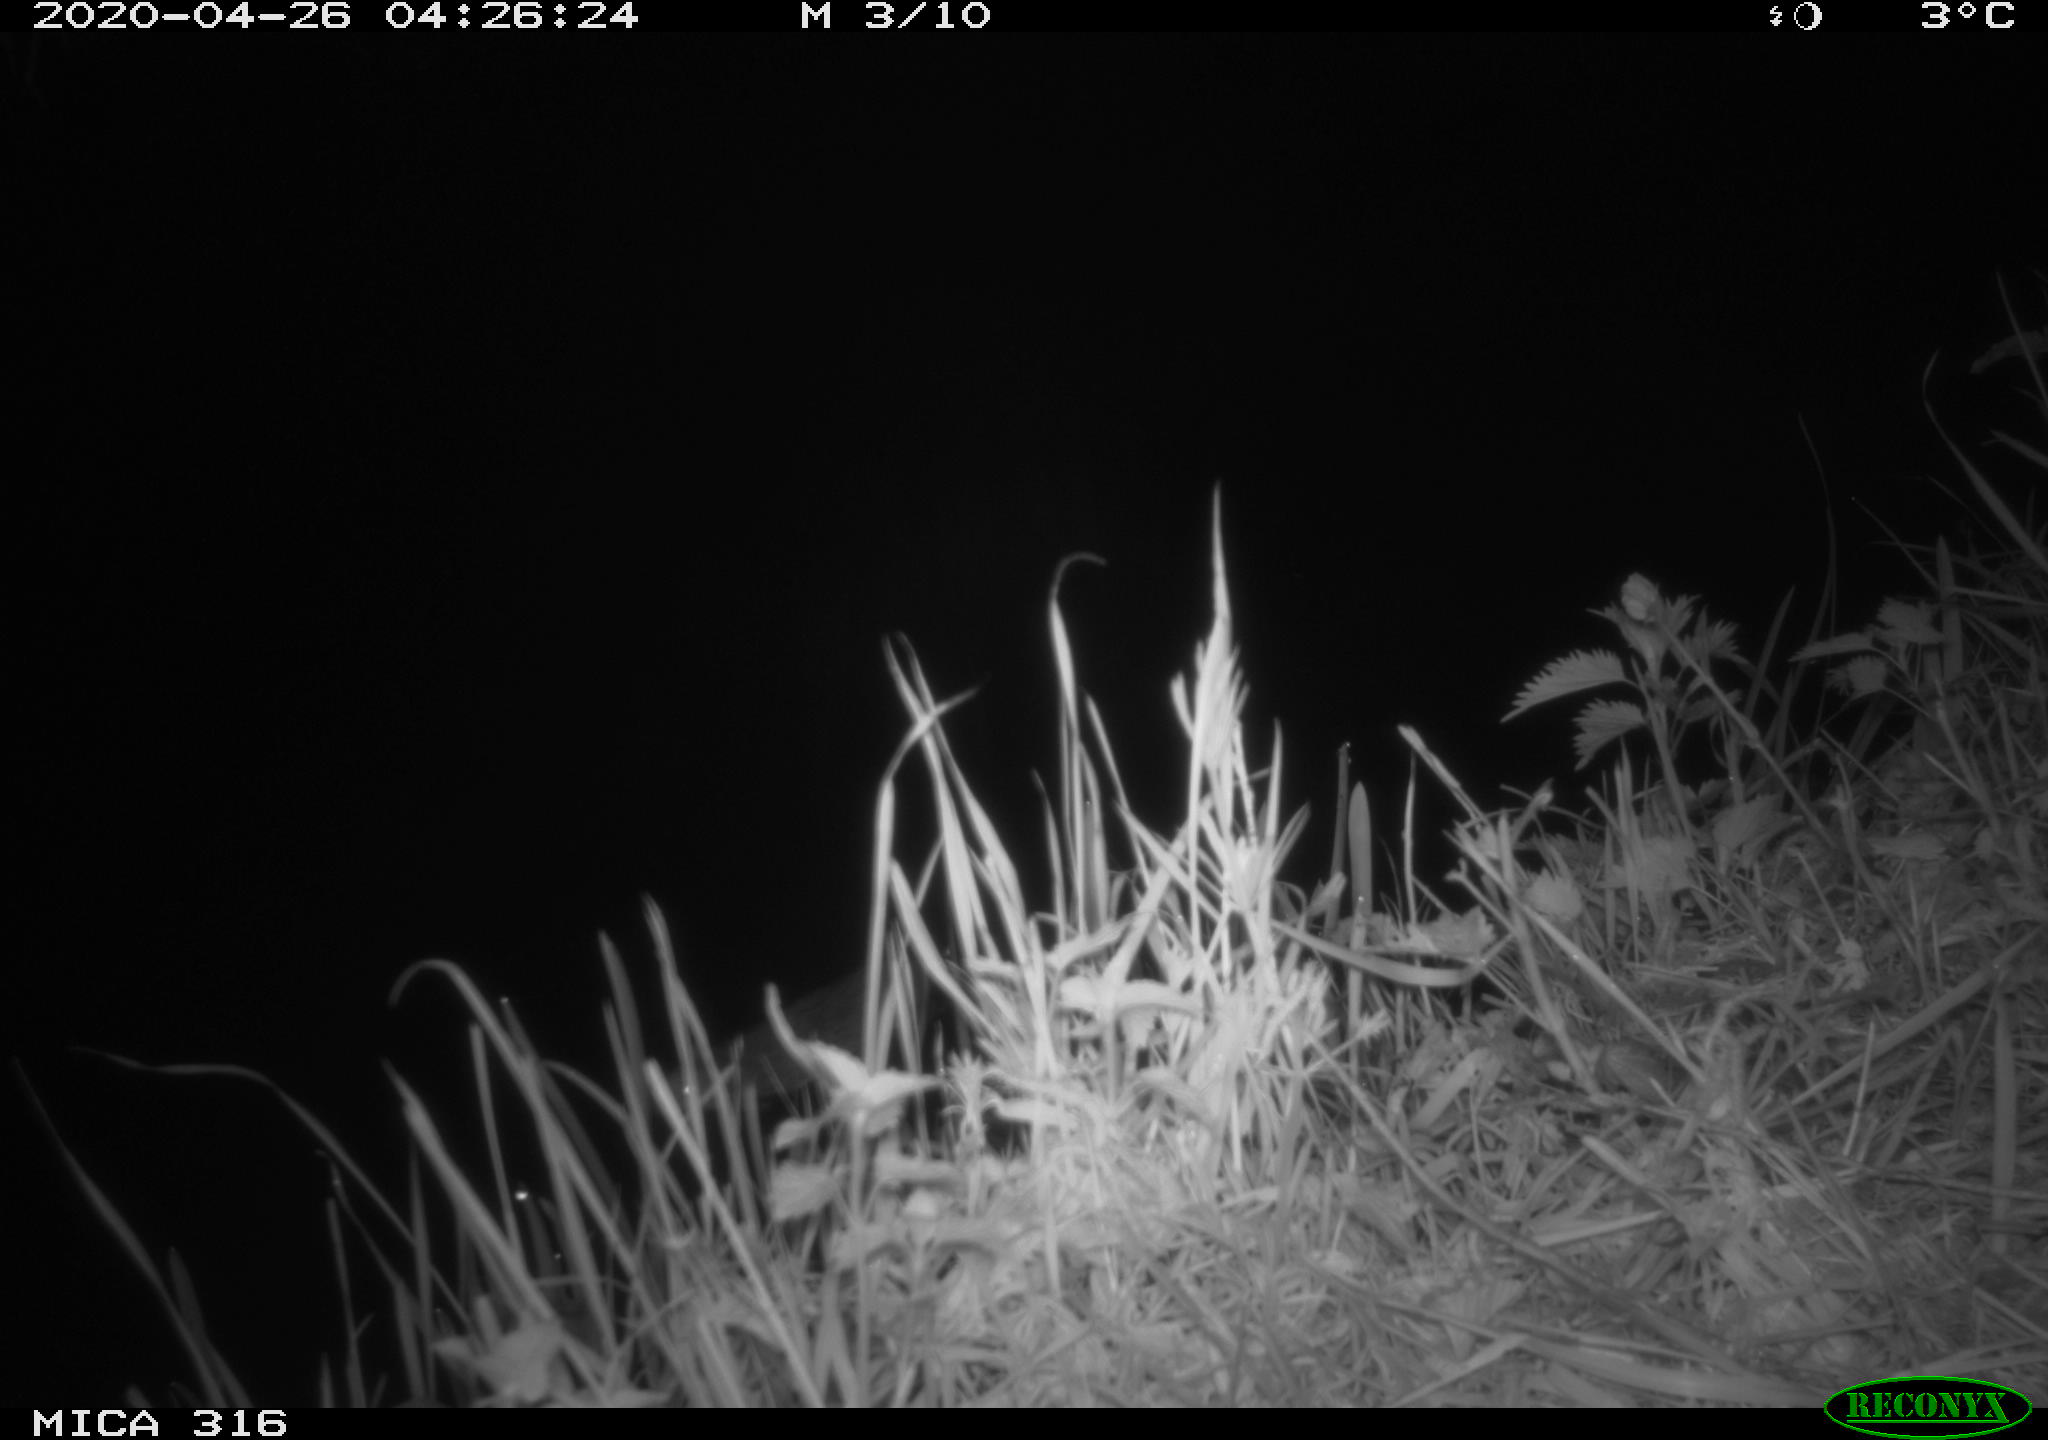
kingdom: Animalia
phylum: Chordata
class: Mammalia
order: Rodentia
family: Muridae
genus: Rattus
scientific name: Rattus norvegicus
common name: Brown rat
